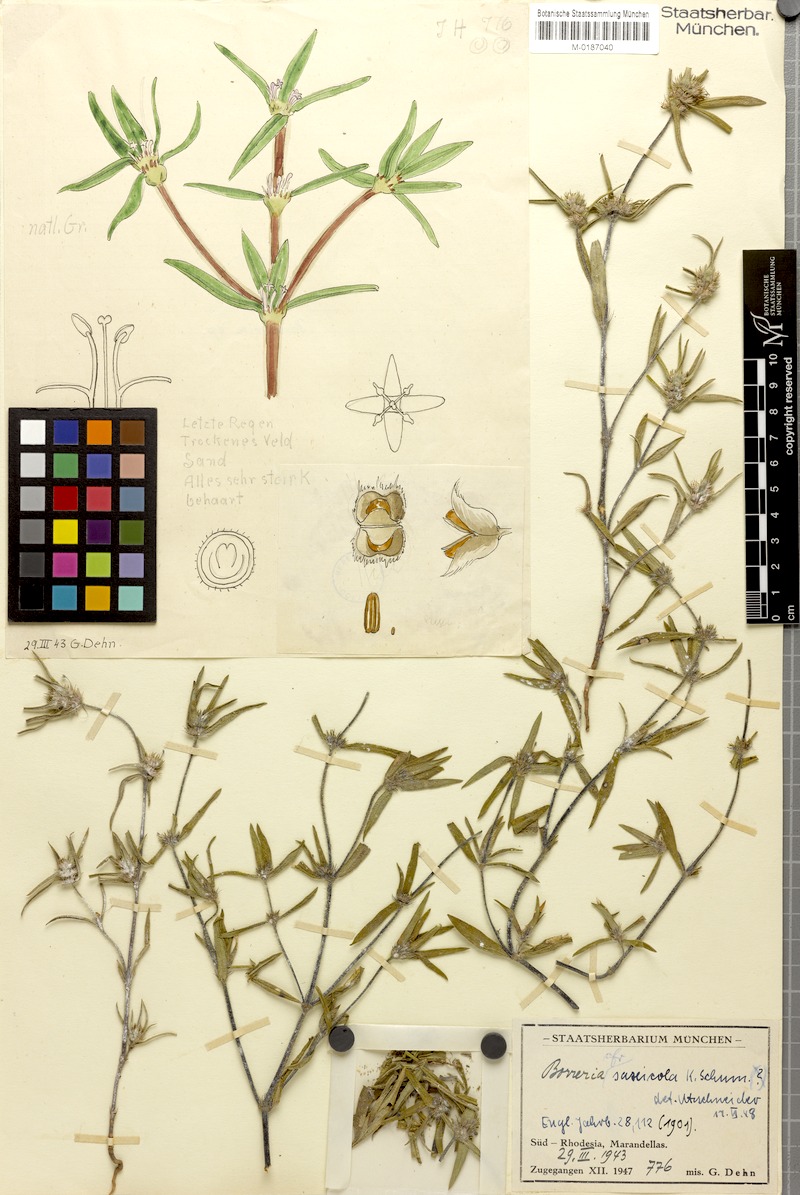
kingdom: Plantae
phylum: Tracheophyta
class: Magnoliopsida
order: Gentianales
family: Rubiaceae
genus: Spermacoce
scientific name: Spermacoce spermacocina
